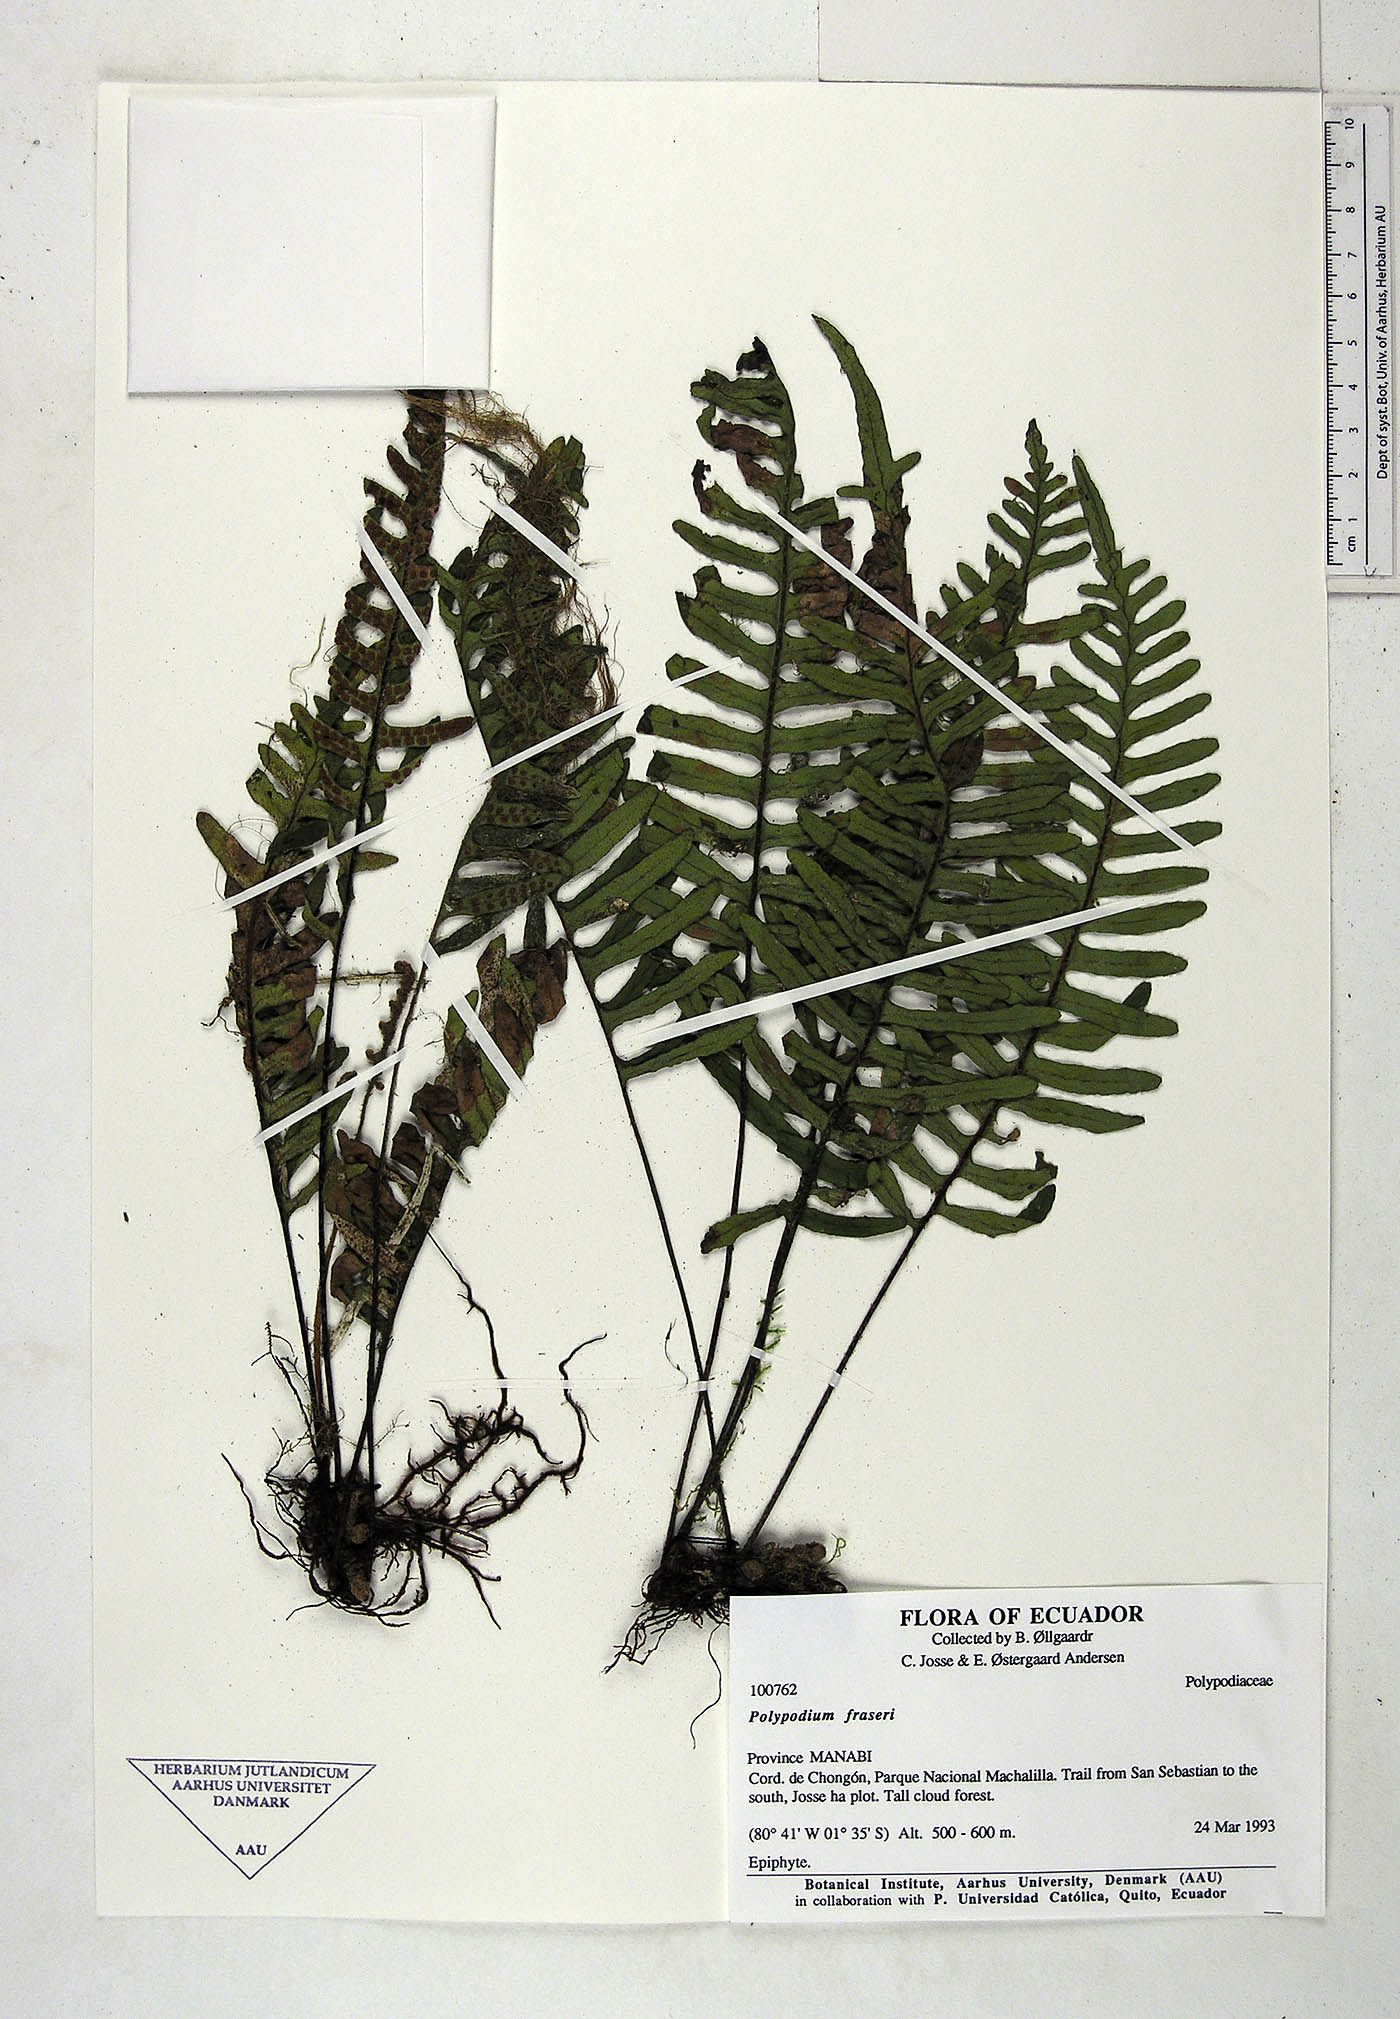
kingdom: Plantae
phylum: Tracheophyta
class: Polypodiopsida
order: Polypodiales
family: Polypodiaceae
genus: Pleopeltis
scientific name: Pleopeltis fraseri
